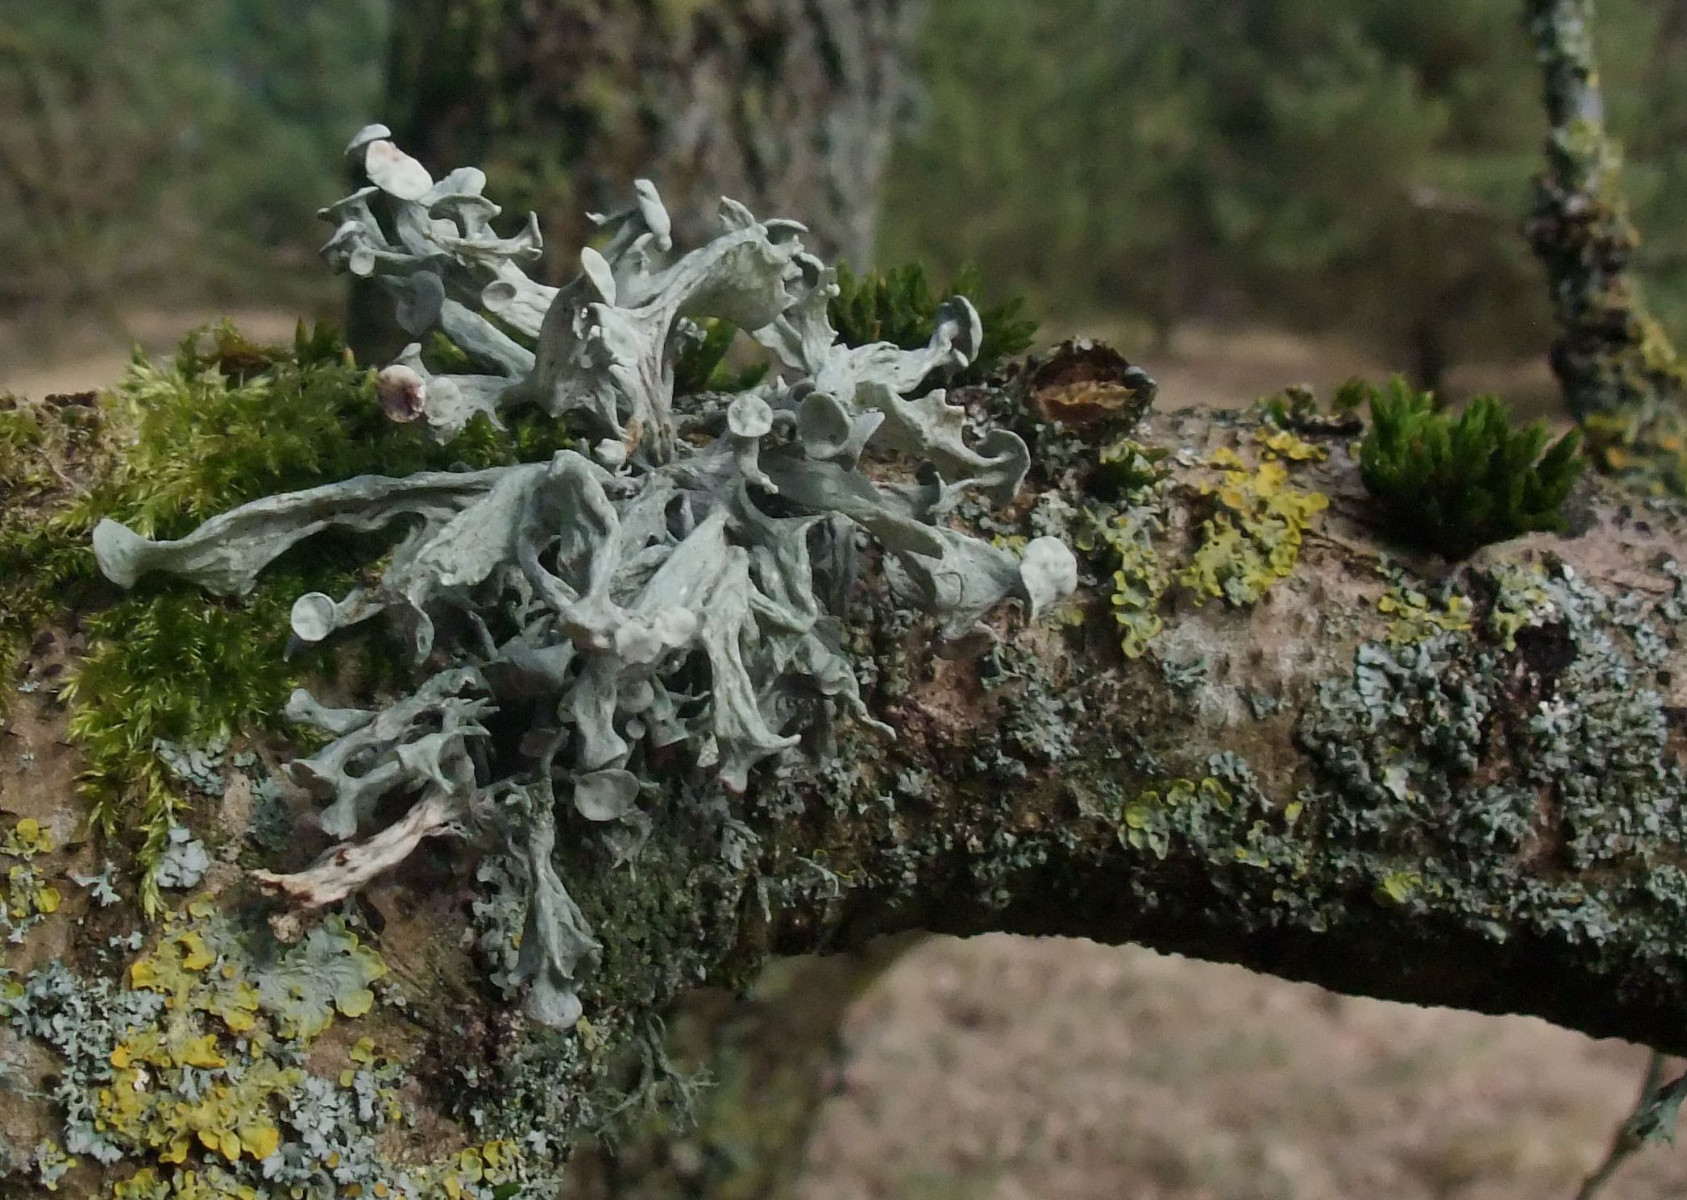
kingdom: Fungi
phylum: Ascomycota
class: Lecanoromycetes
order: Lecanorales
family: Ramalinaceae
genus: Ramalina
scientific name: Ramalina fastigiata
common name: tue-grenlav
